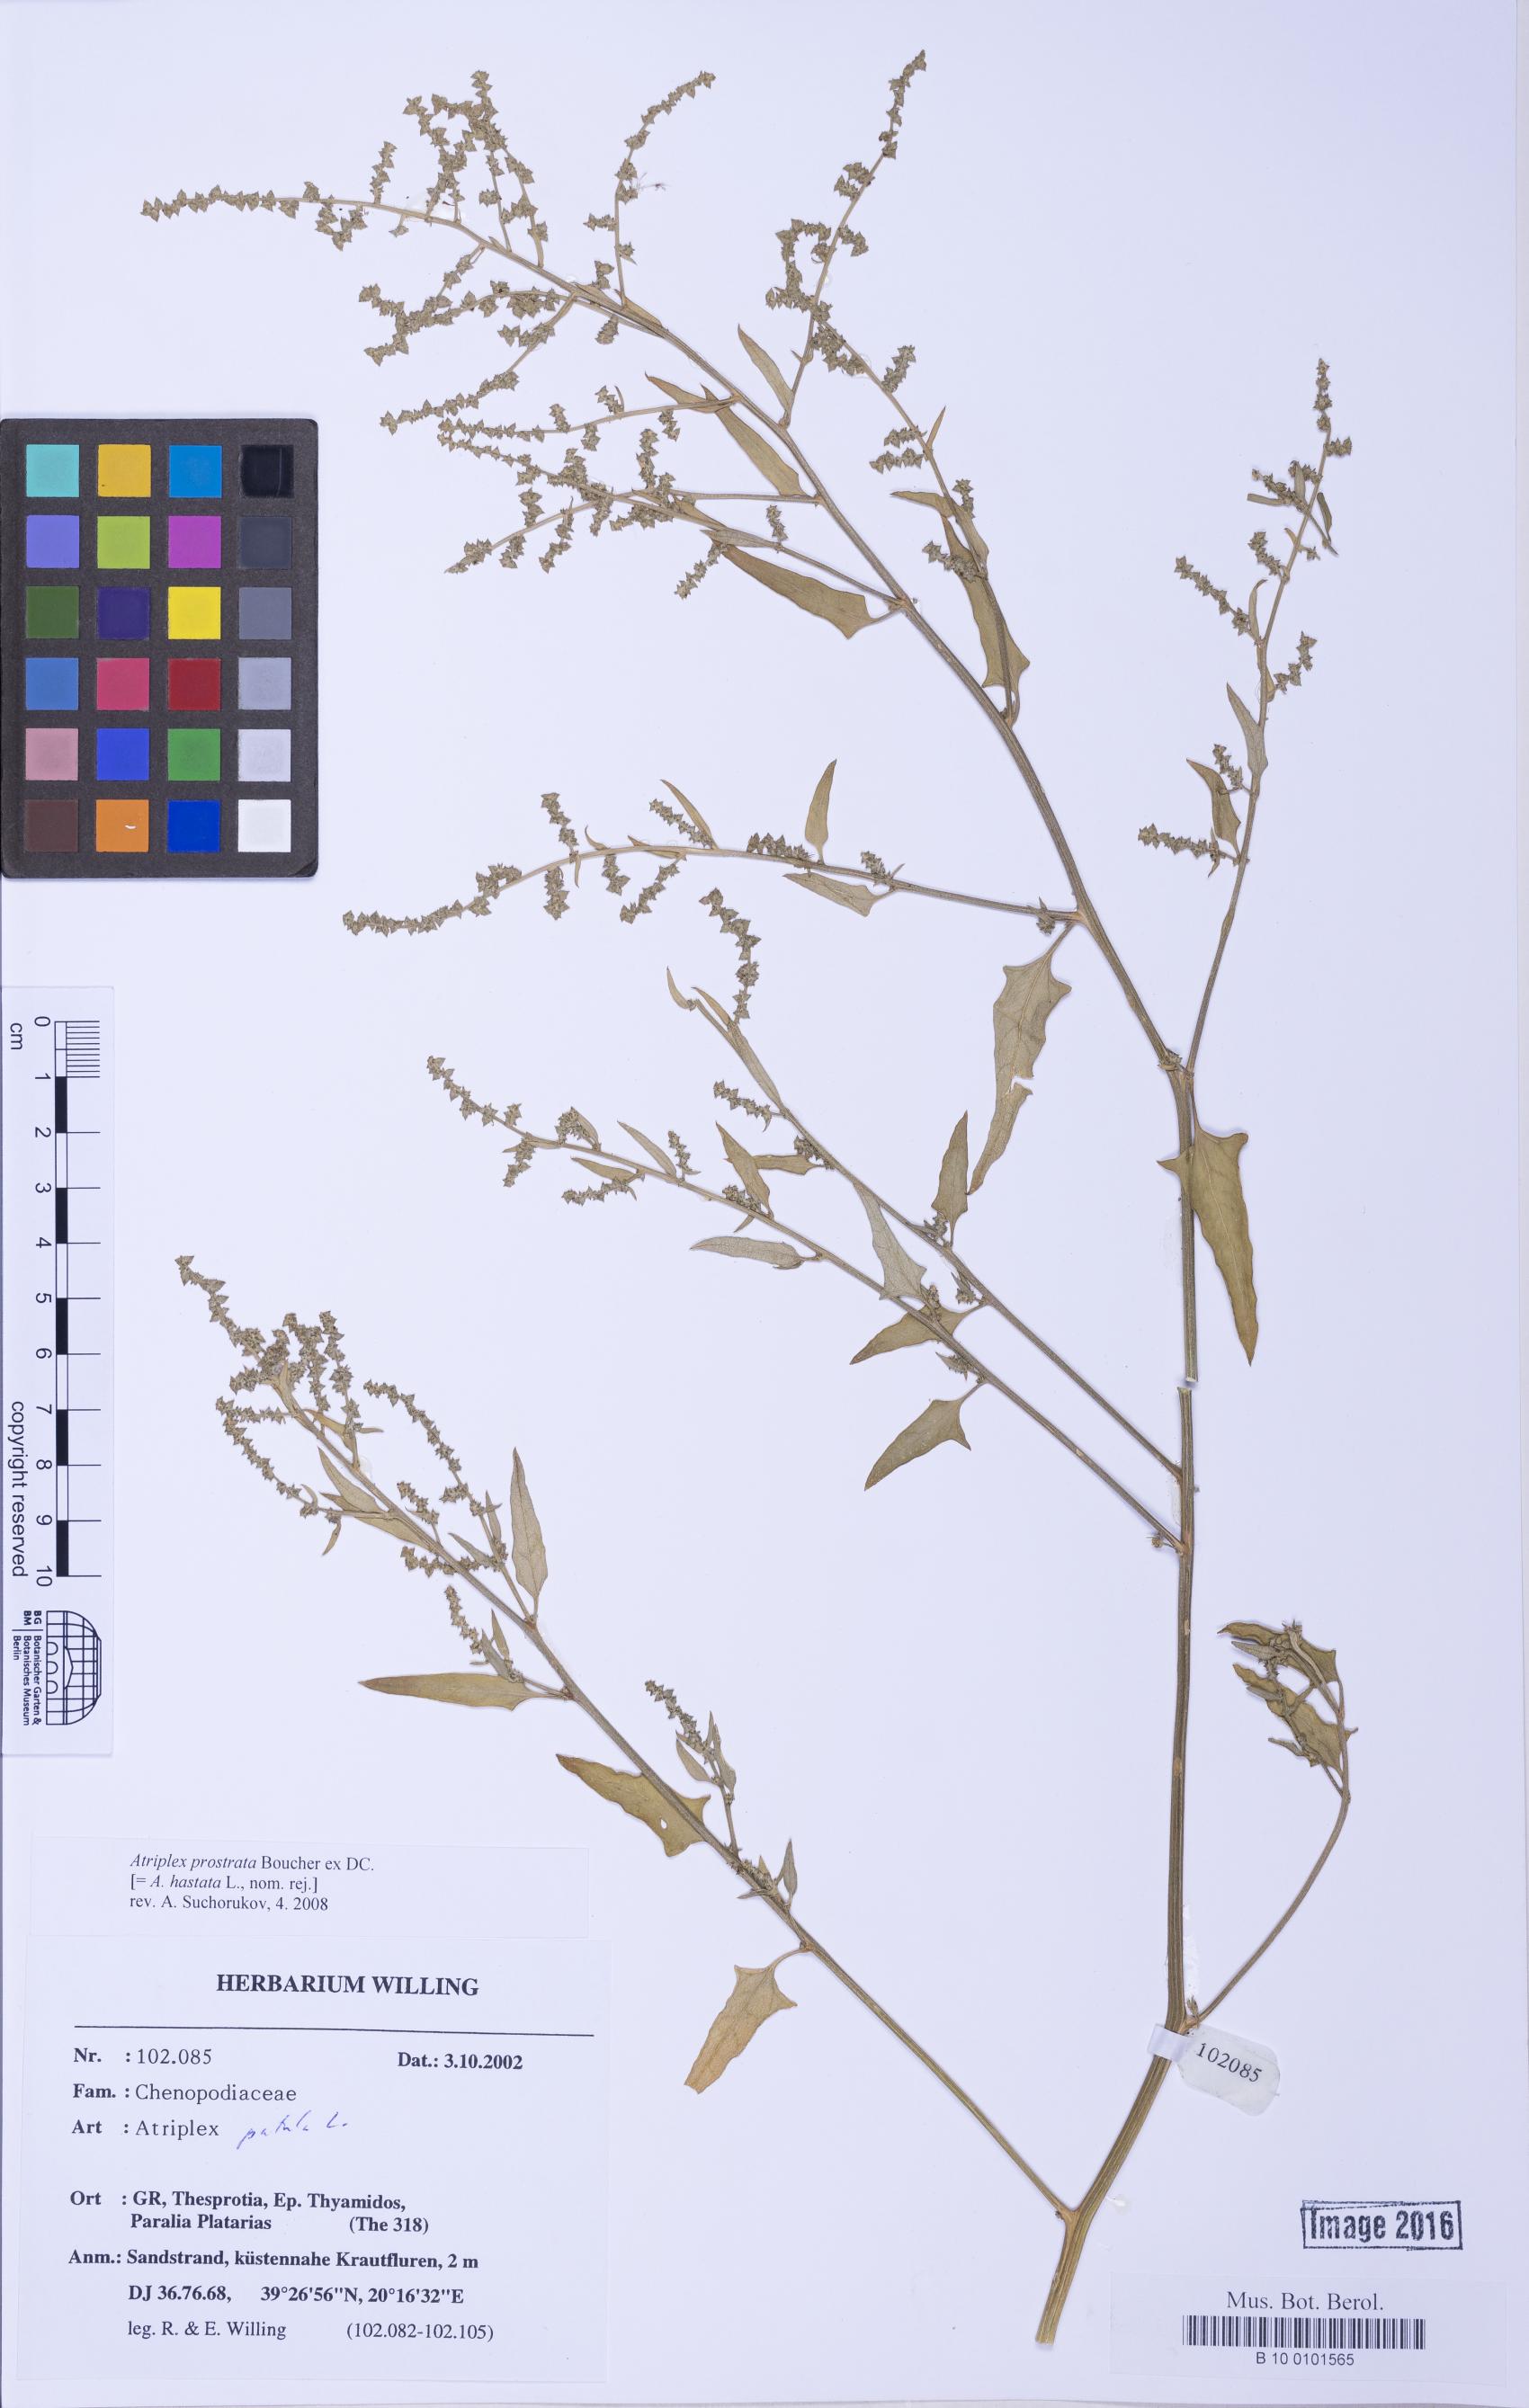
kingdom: Plantae
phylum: Tracheophyta
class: Magnoliopsida
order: Caryophyllales
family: Amaranthaceae
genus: Atriplex
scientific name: Atriplex prostrata
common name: Spear-leaved orache
